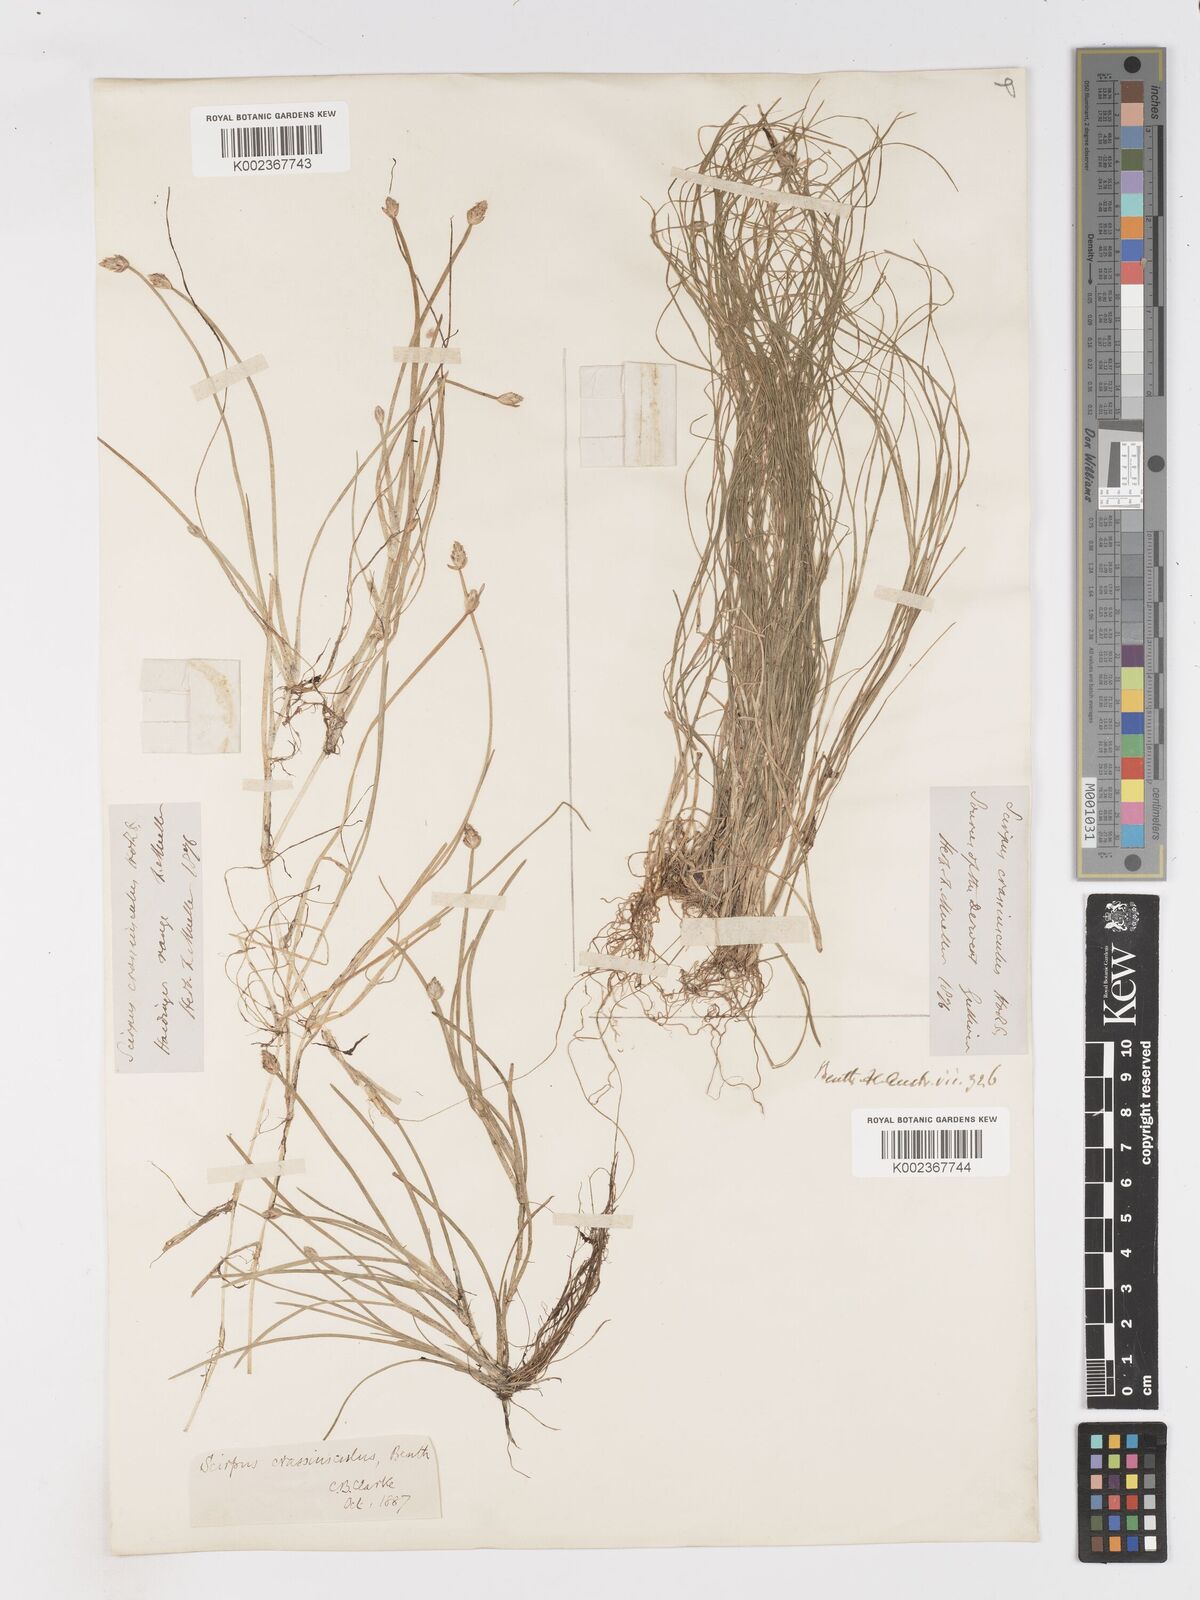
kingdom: Plantae
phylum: Tracheophyta
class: Liliopsida
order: Poales
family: Cyperaceae
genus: Isolepis
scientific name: Isolepis crassiuscula
